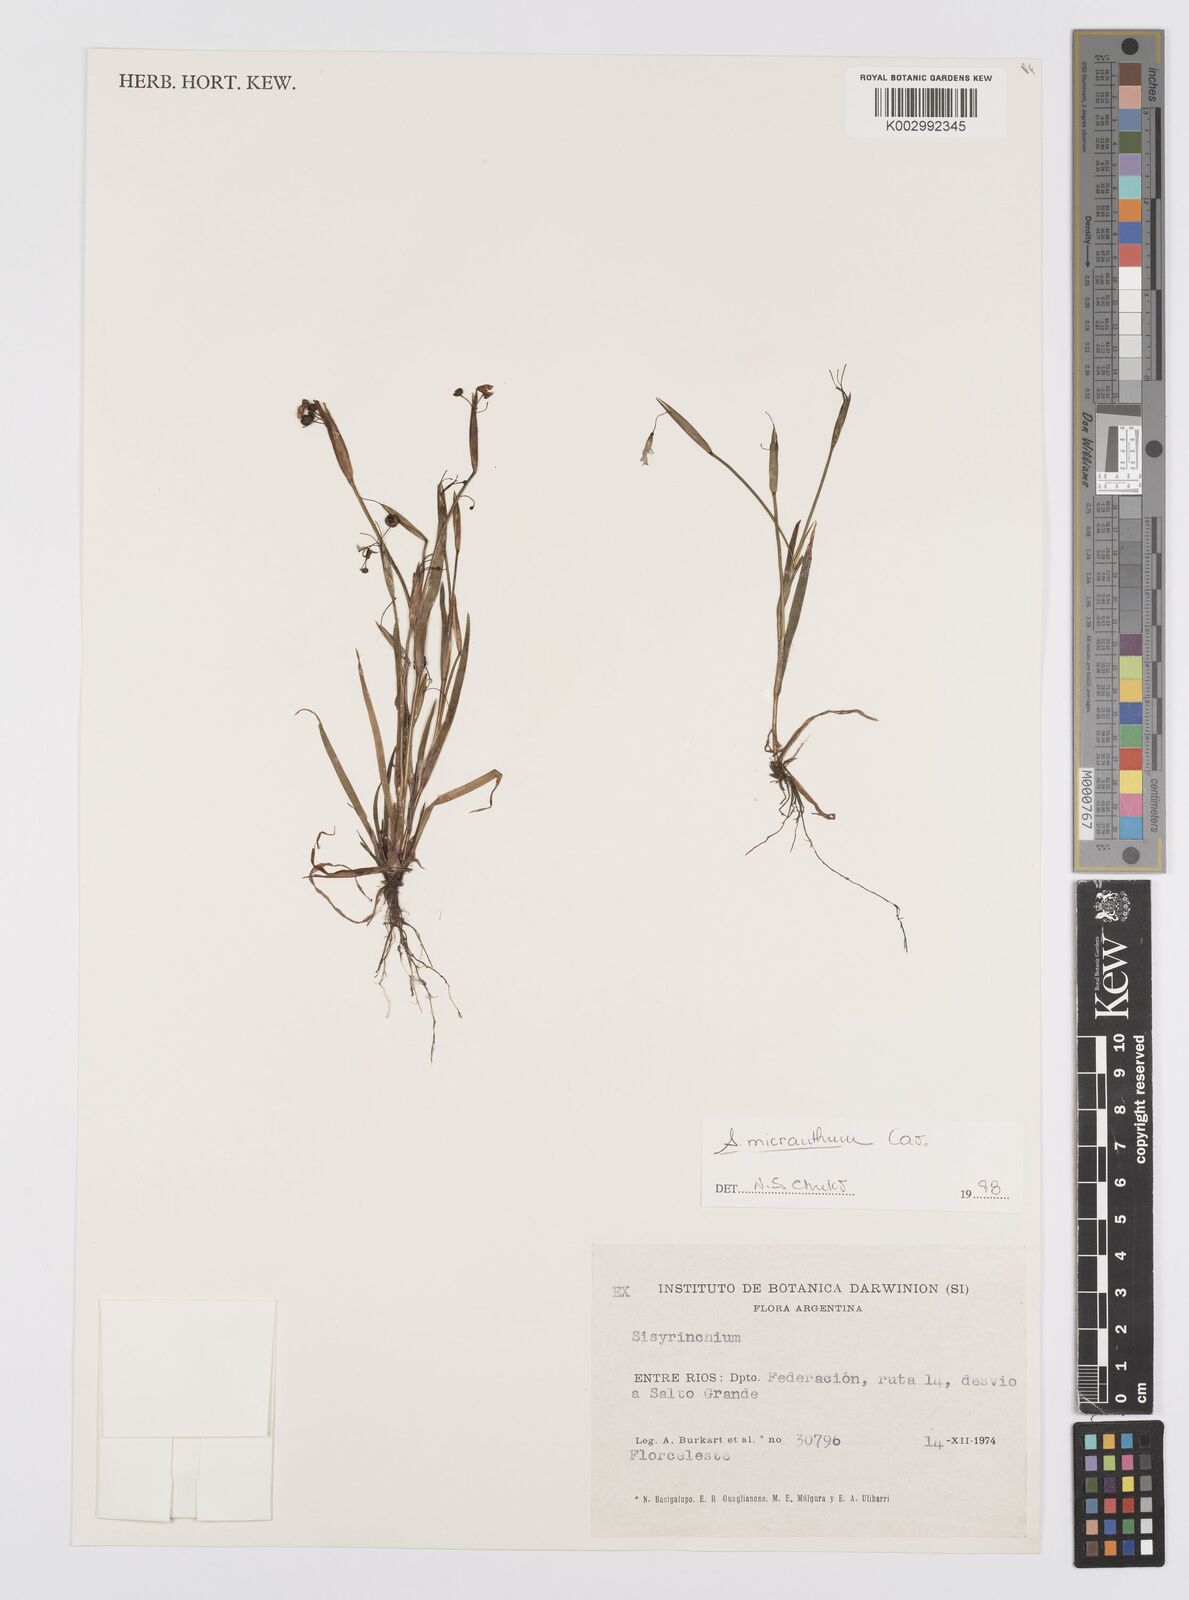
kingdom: Plantae
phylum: Tracheophyta
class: Liliopsida
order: Asparagales
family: Iridaceae
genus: Sisyrinchium
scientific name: Sisyrinchium micranthum
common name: Bermuda pigroot
